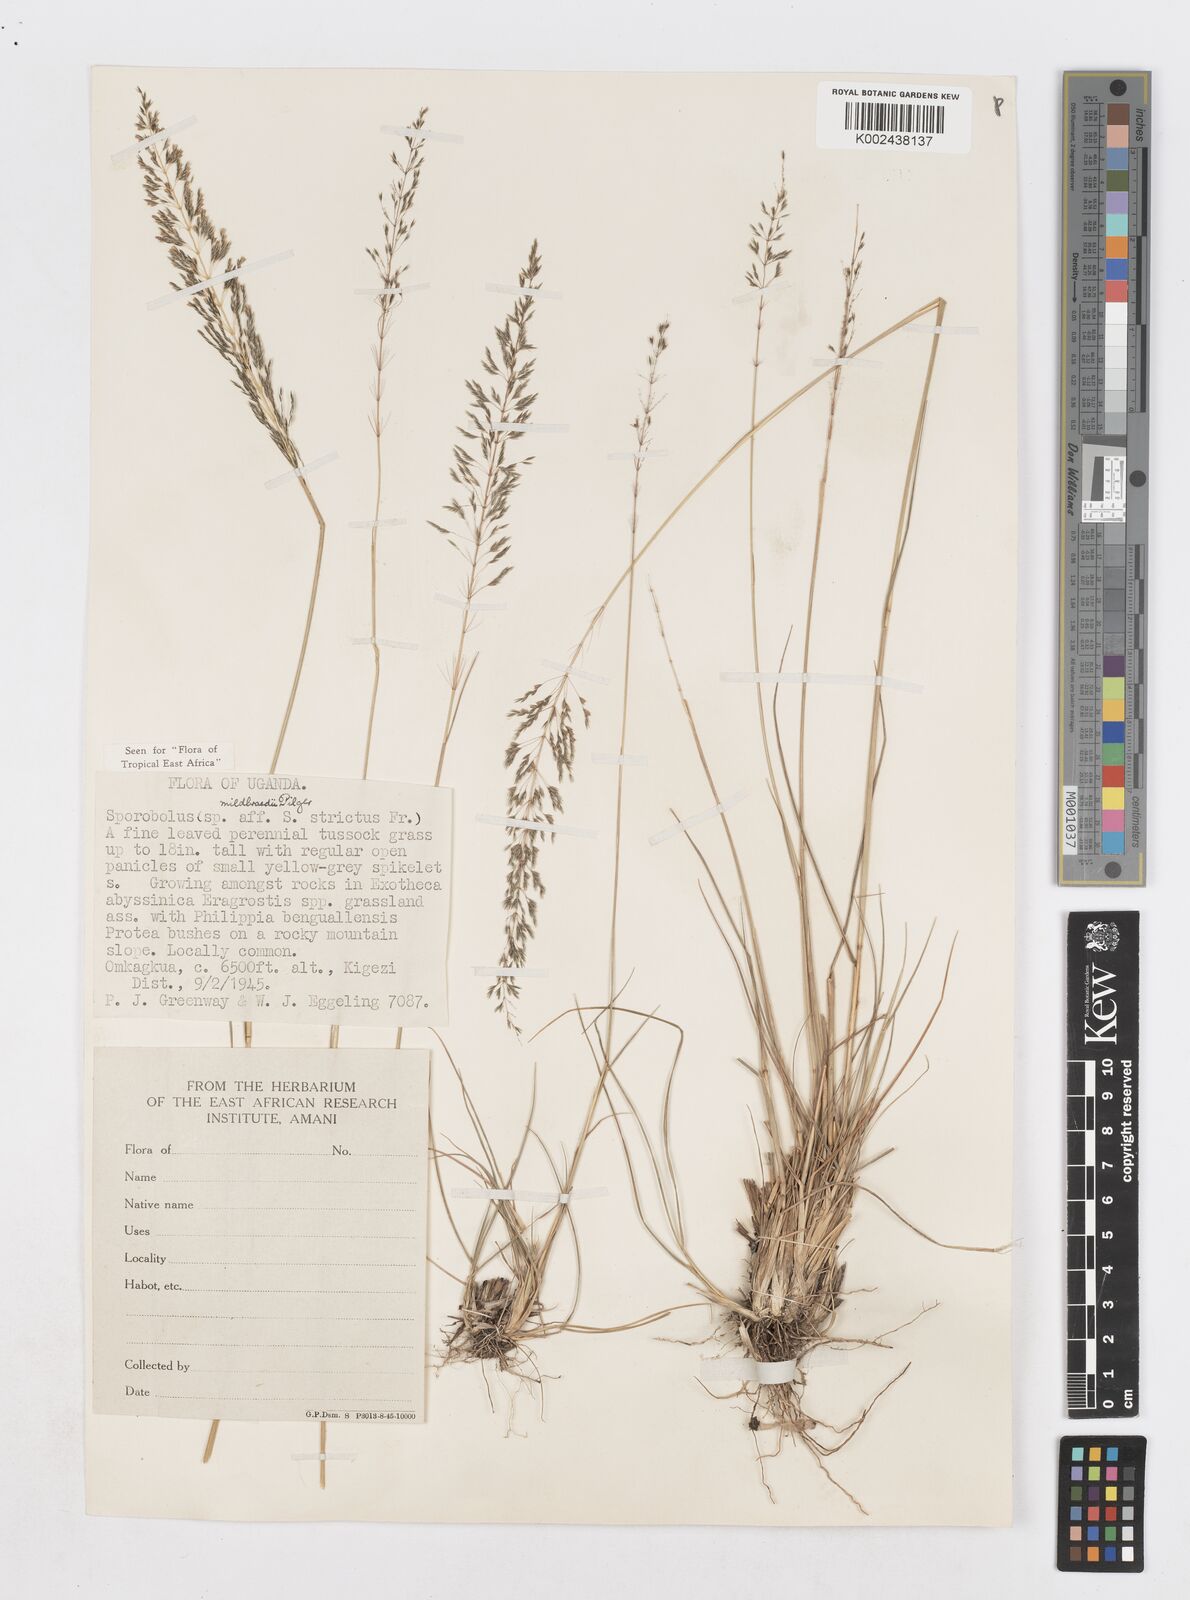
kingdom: Plantae
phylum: Tracheophyta
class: Liliopsida
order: Poales
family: Poaceae
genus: Sporobolus
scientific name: Sporobolus mildbraedii
